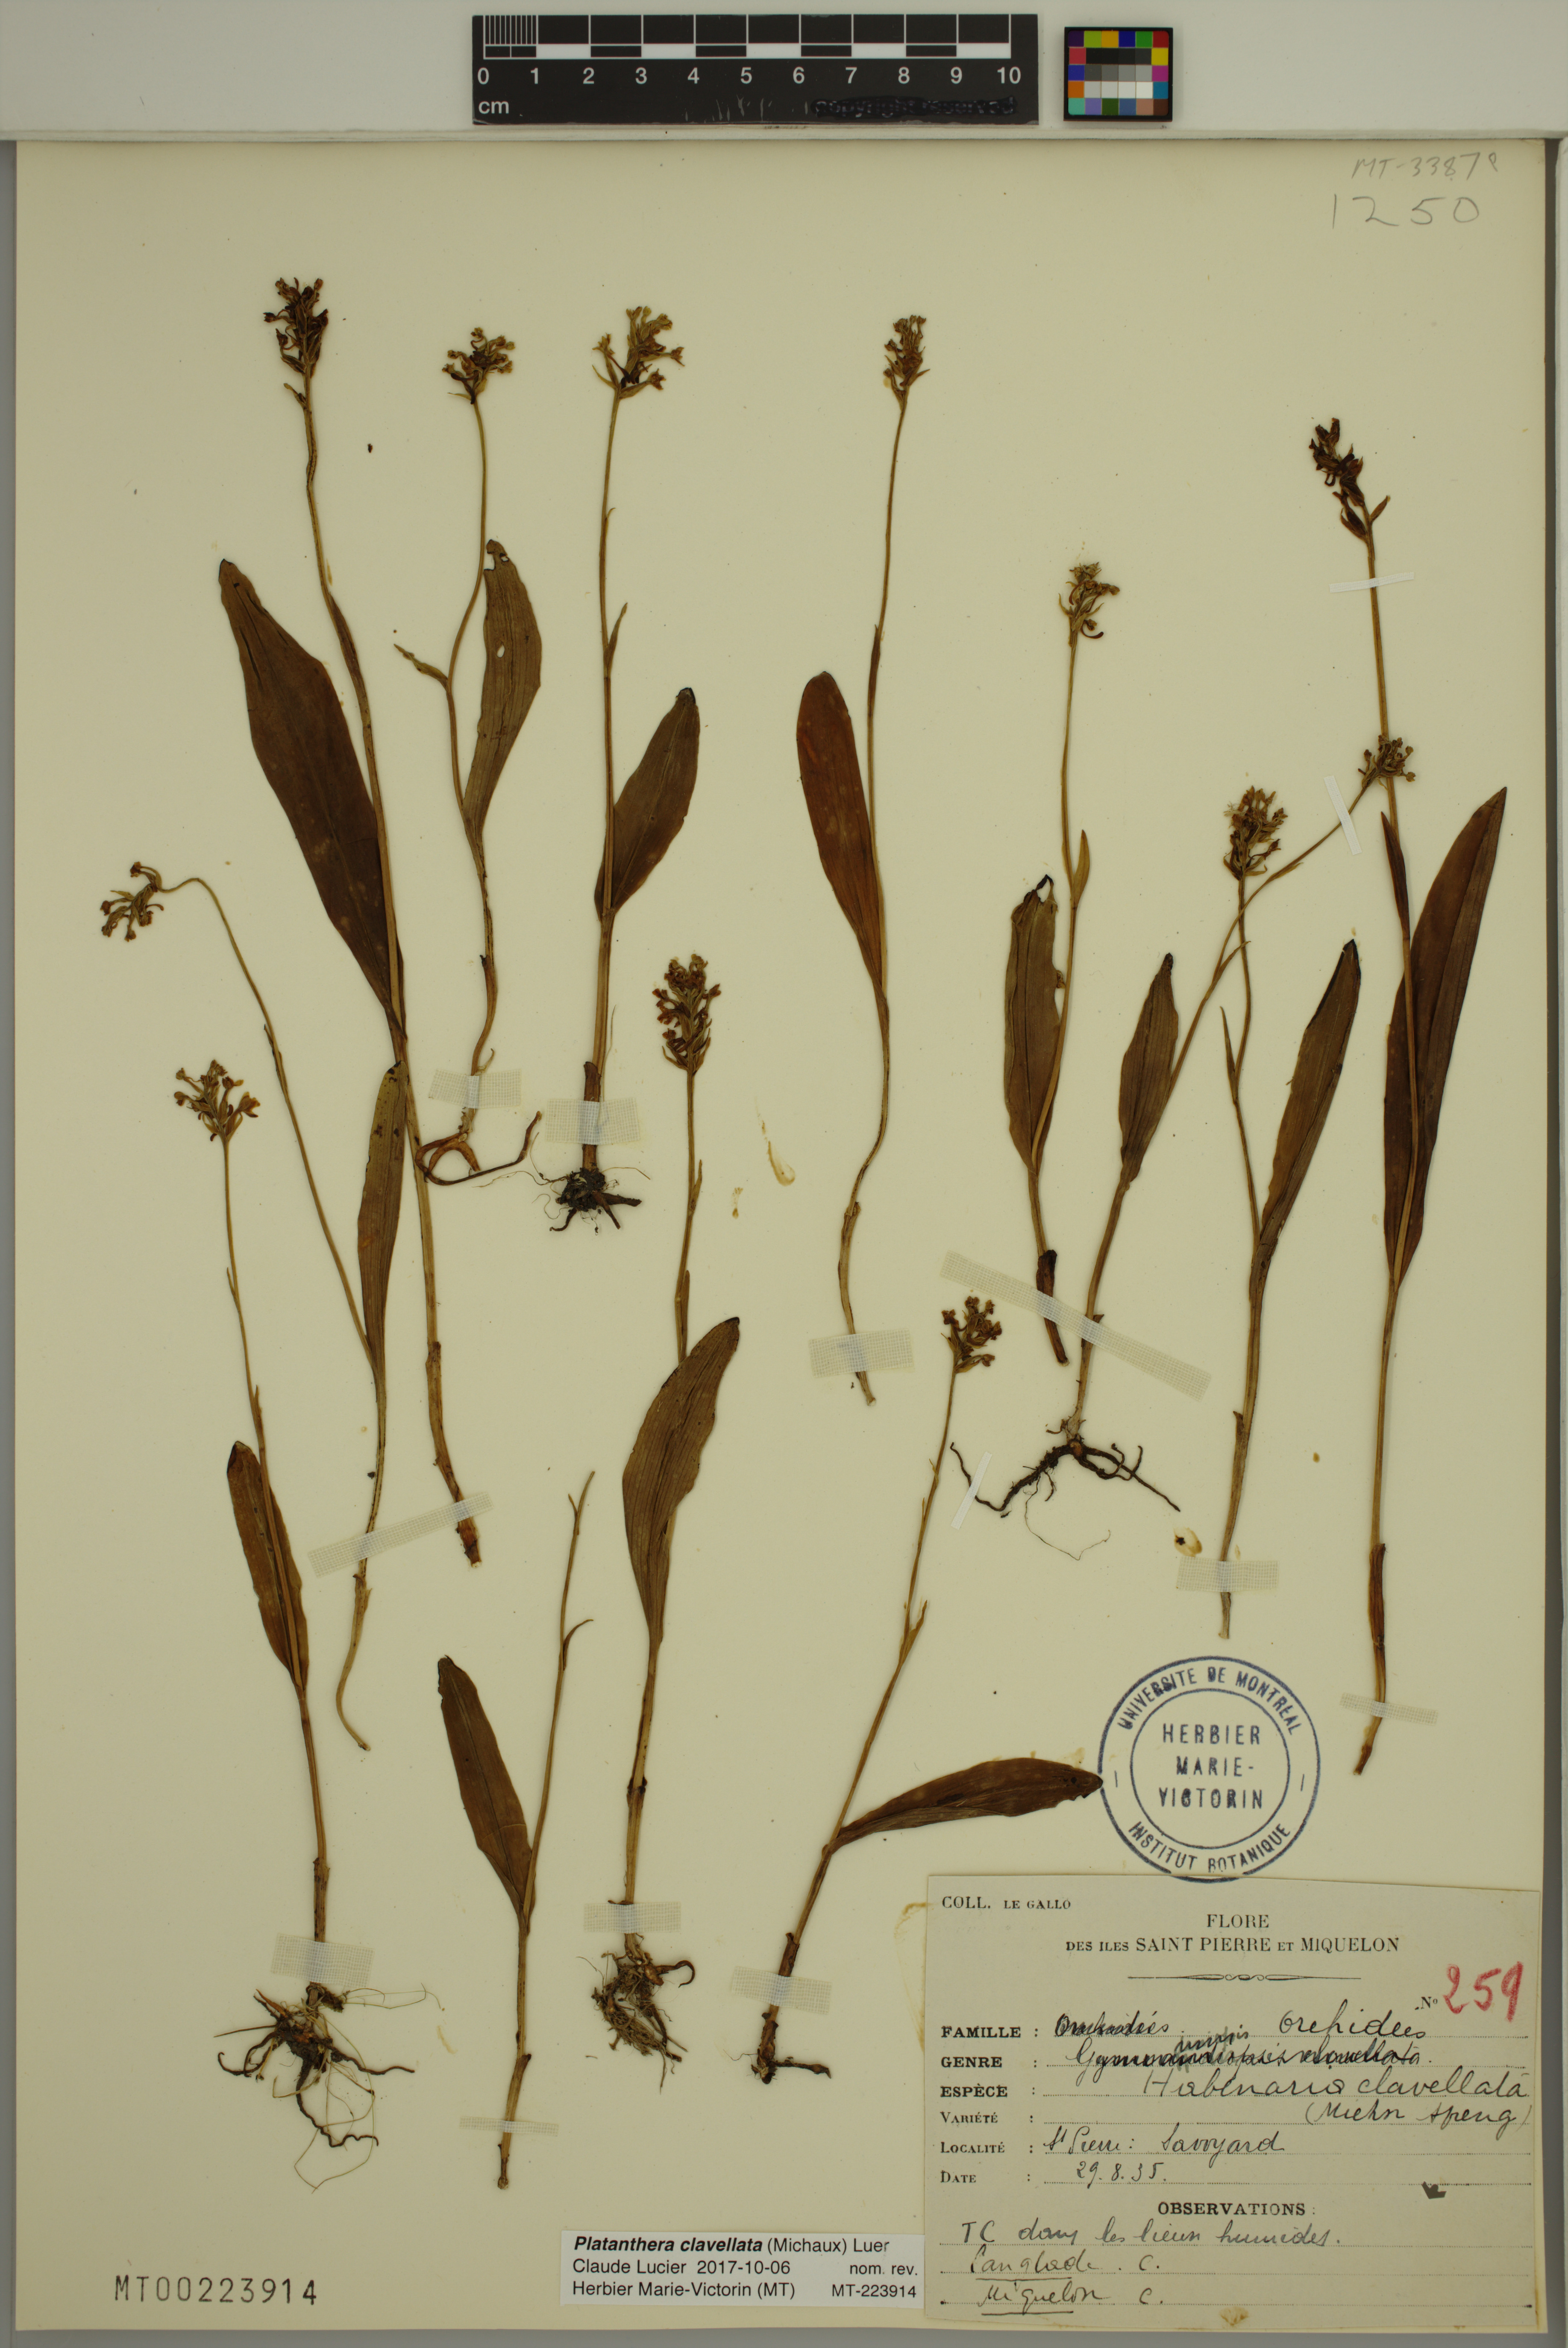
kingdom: Plantae
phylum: Tracheophyta
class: Liliopsida
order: Asparagales
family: Orchidaceae
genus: Platanthera
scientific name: Platanthera clavellata
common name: Club-spur orchid
